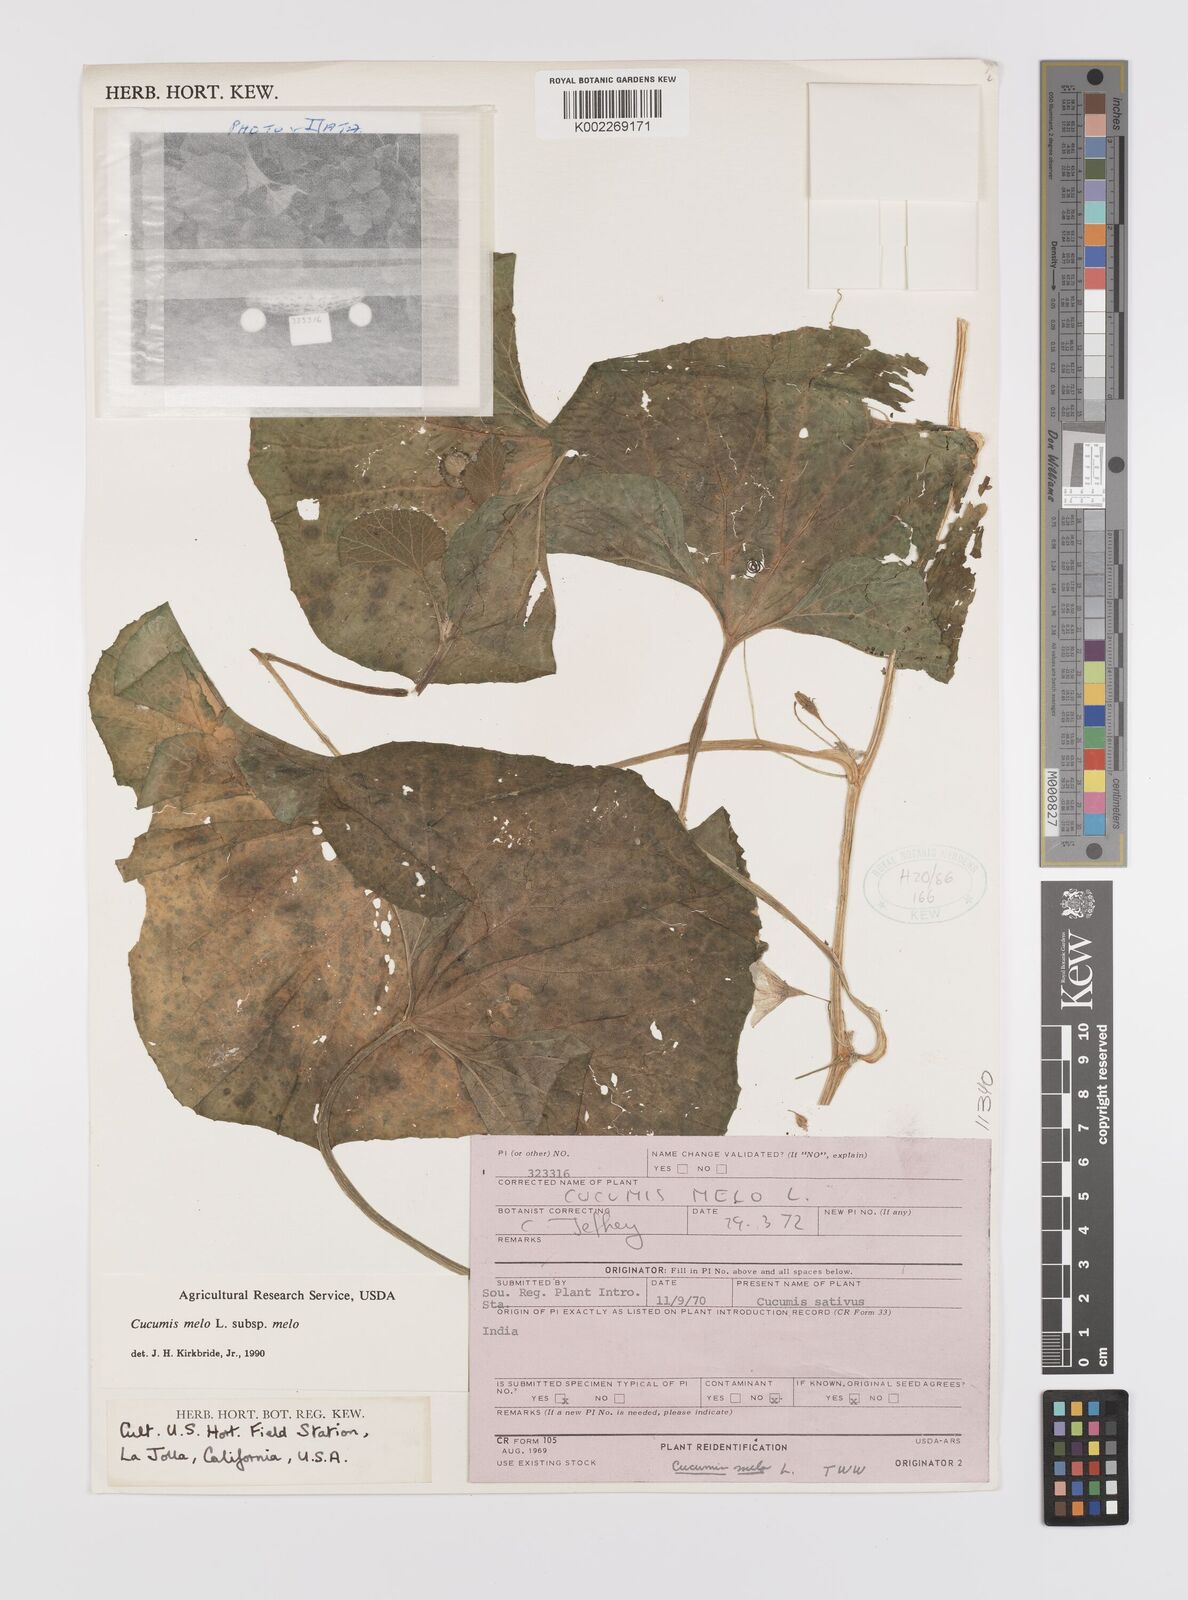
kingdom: Plantae
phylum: Tracheophyta
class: Magnoliopsida
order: Cucurbitales
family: Cucurbitaceae
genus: Cucumis
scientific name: Cucumis melo
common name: Melon
